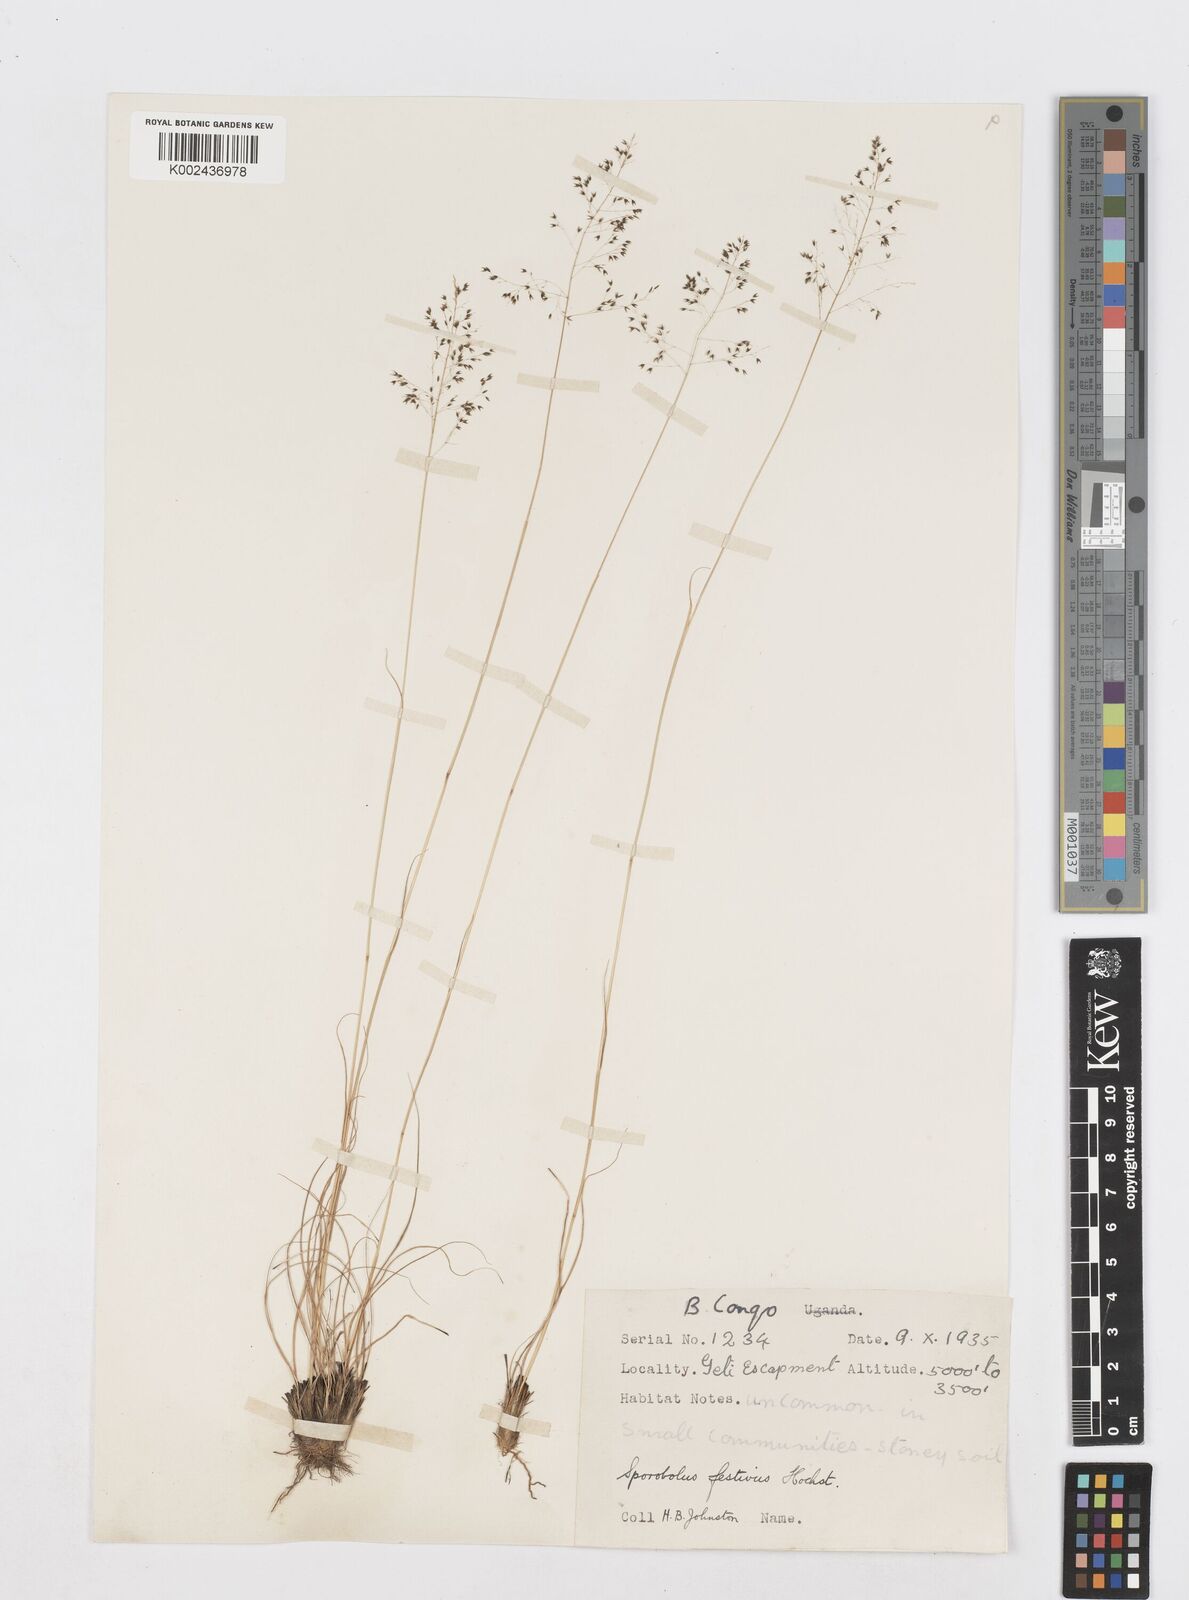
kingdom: Plantae
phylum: Tracheophyta
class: Liliopsida
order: Poales
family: Poaceae
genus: Sporobolus
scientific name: Sporobolus stapfianus
